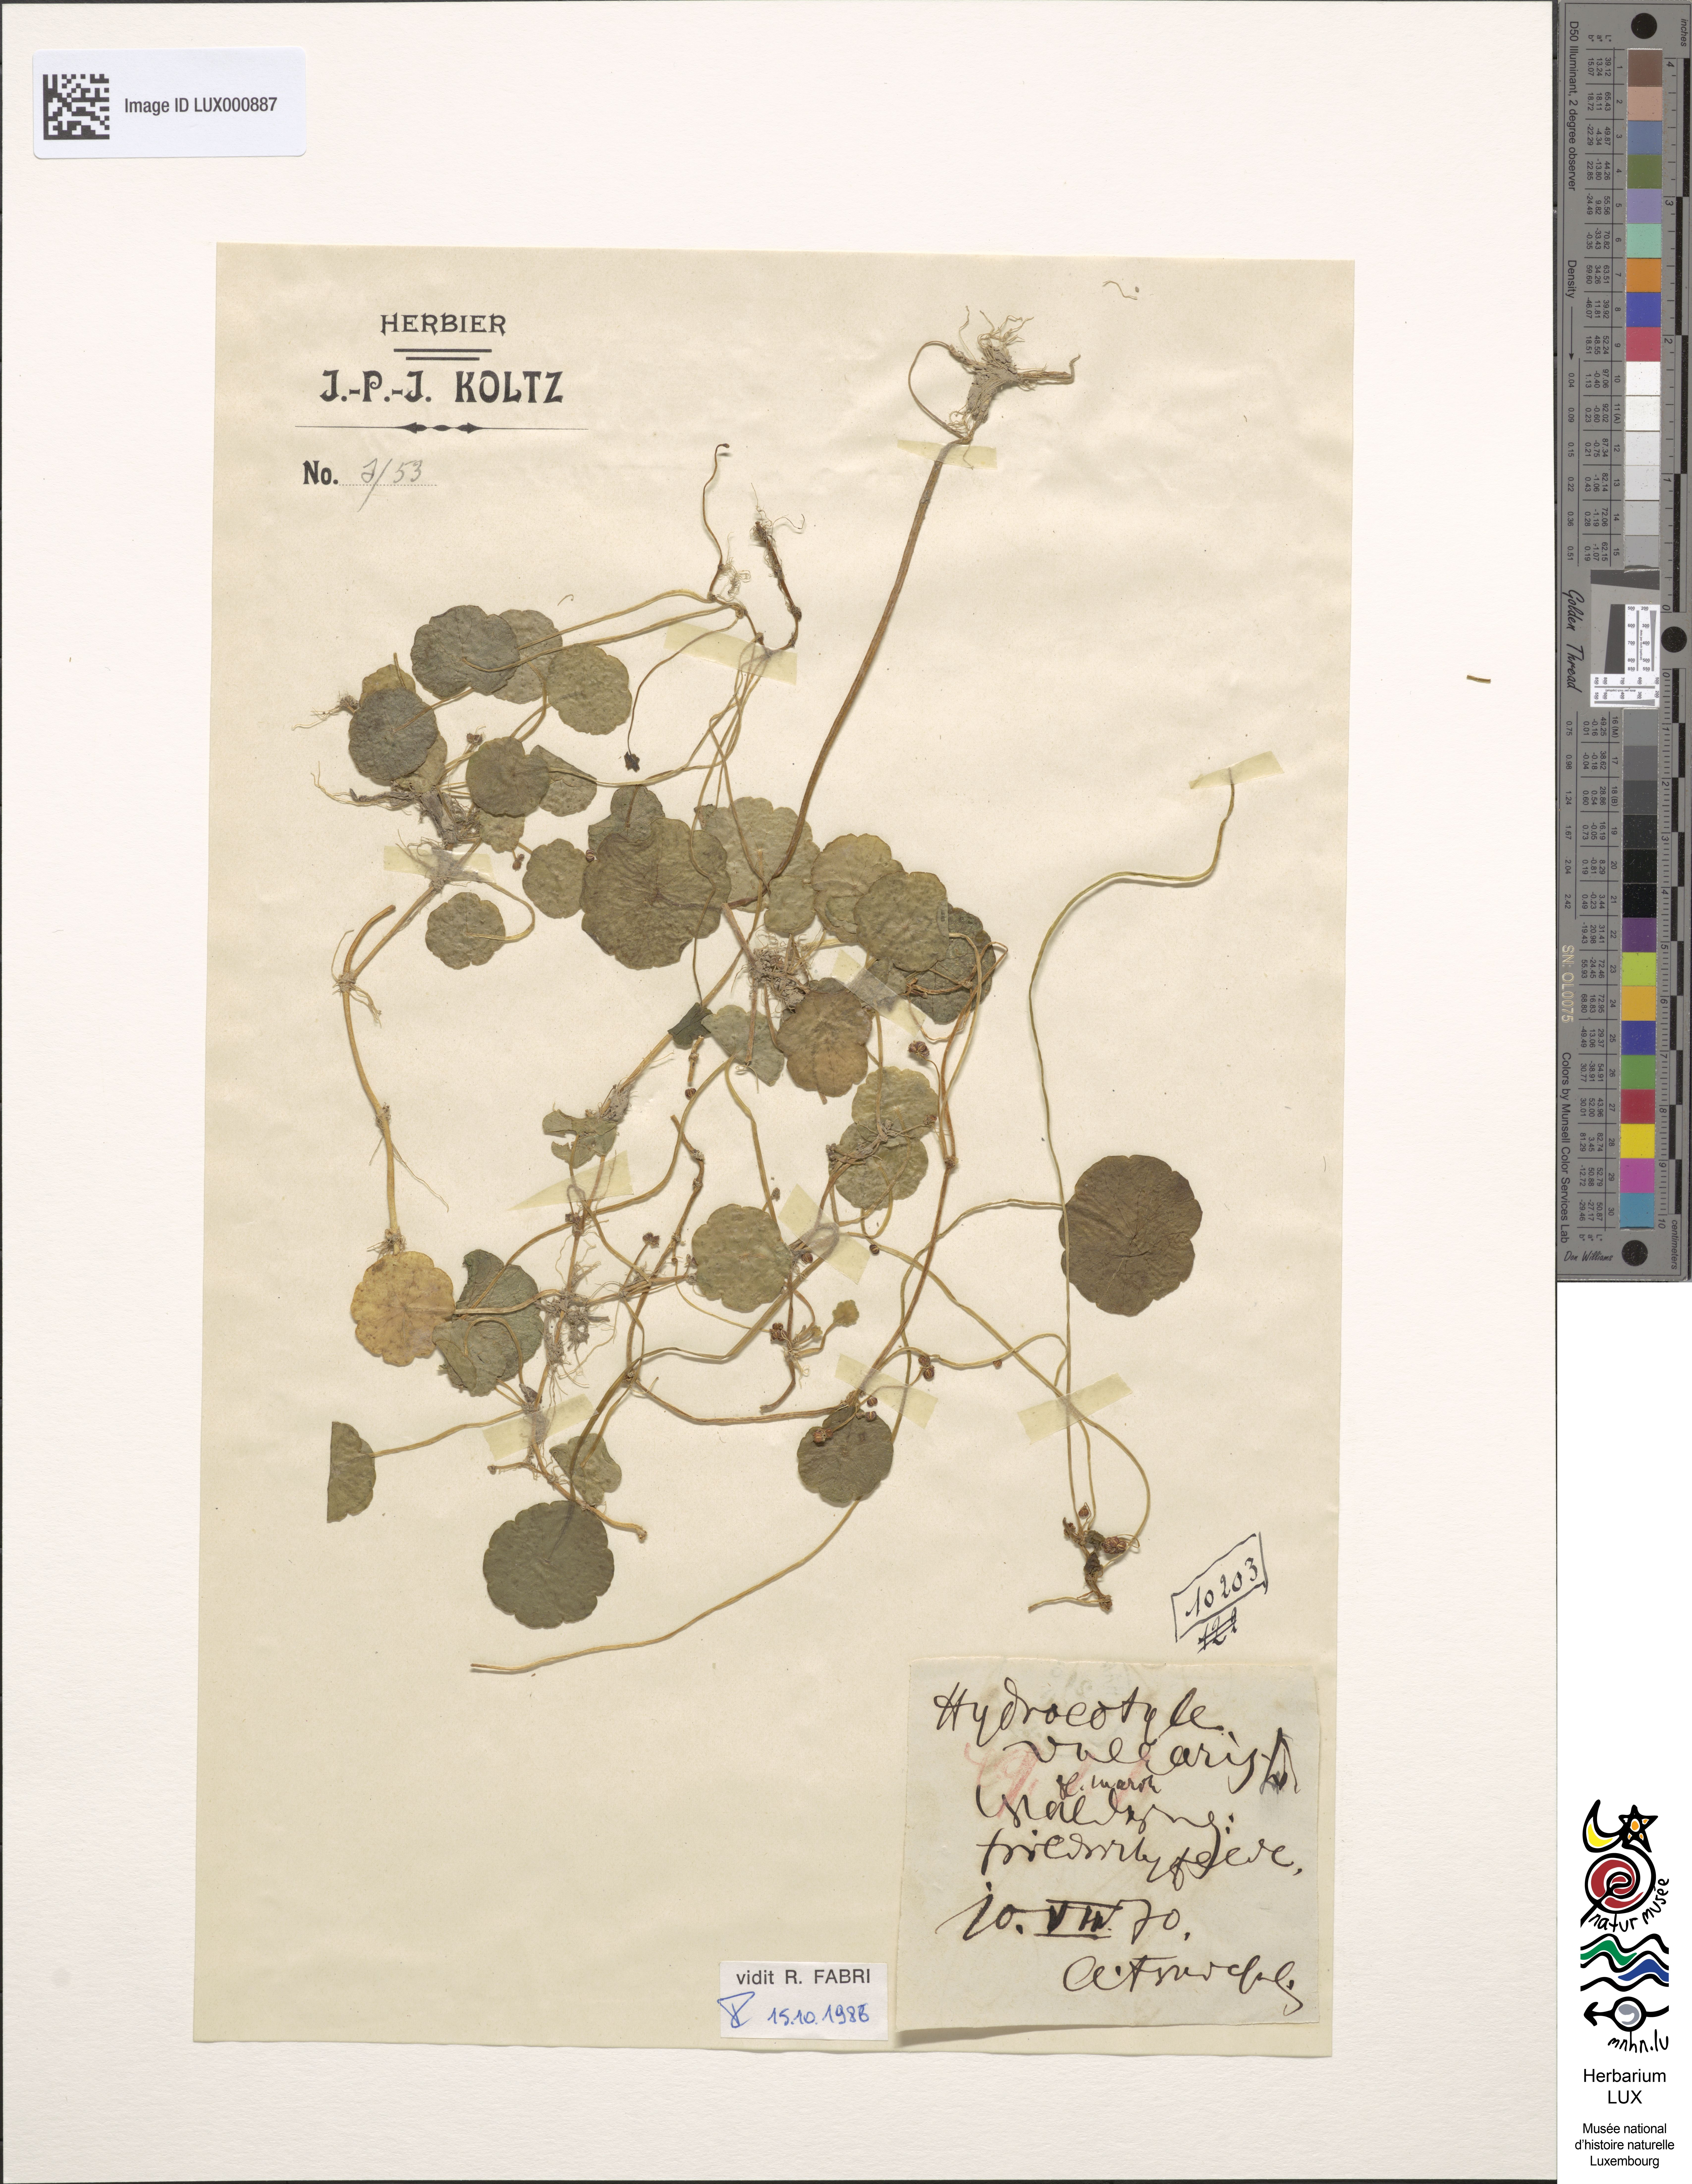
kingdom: Plantae
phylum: Tracheophyta
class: Magnoliopsida
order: Apiales
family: Araliaceae
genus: Hydrocotyle
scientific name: Hydrocotyle vulgaris
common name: Marsh pennywort
